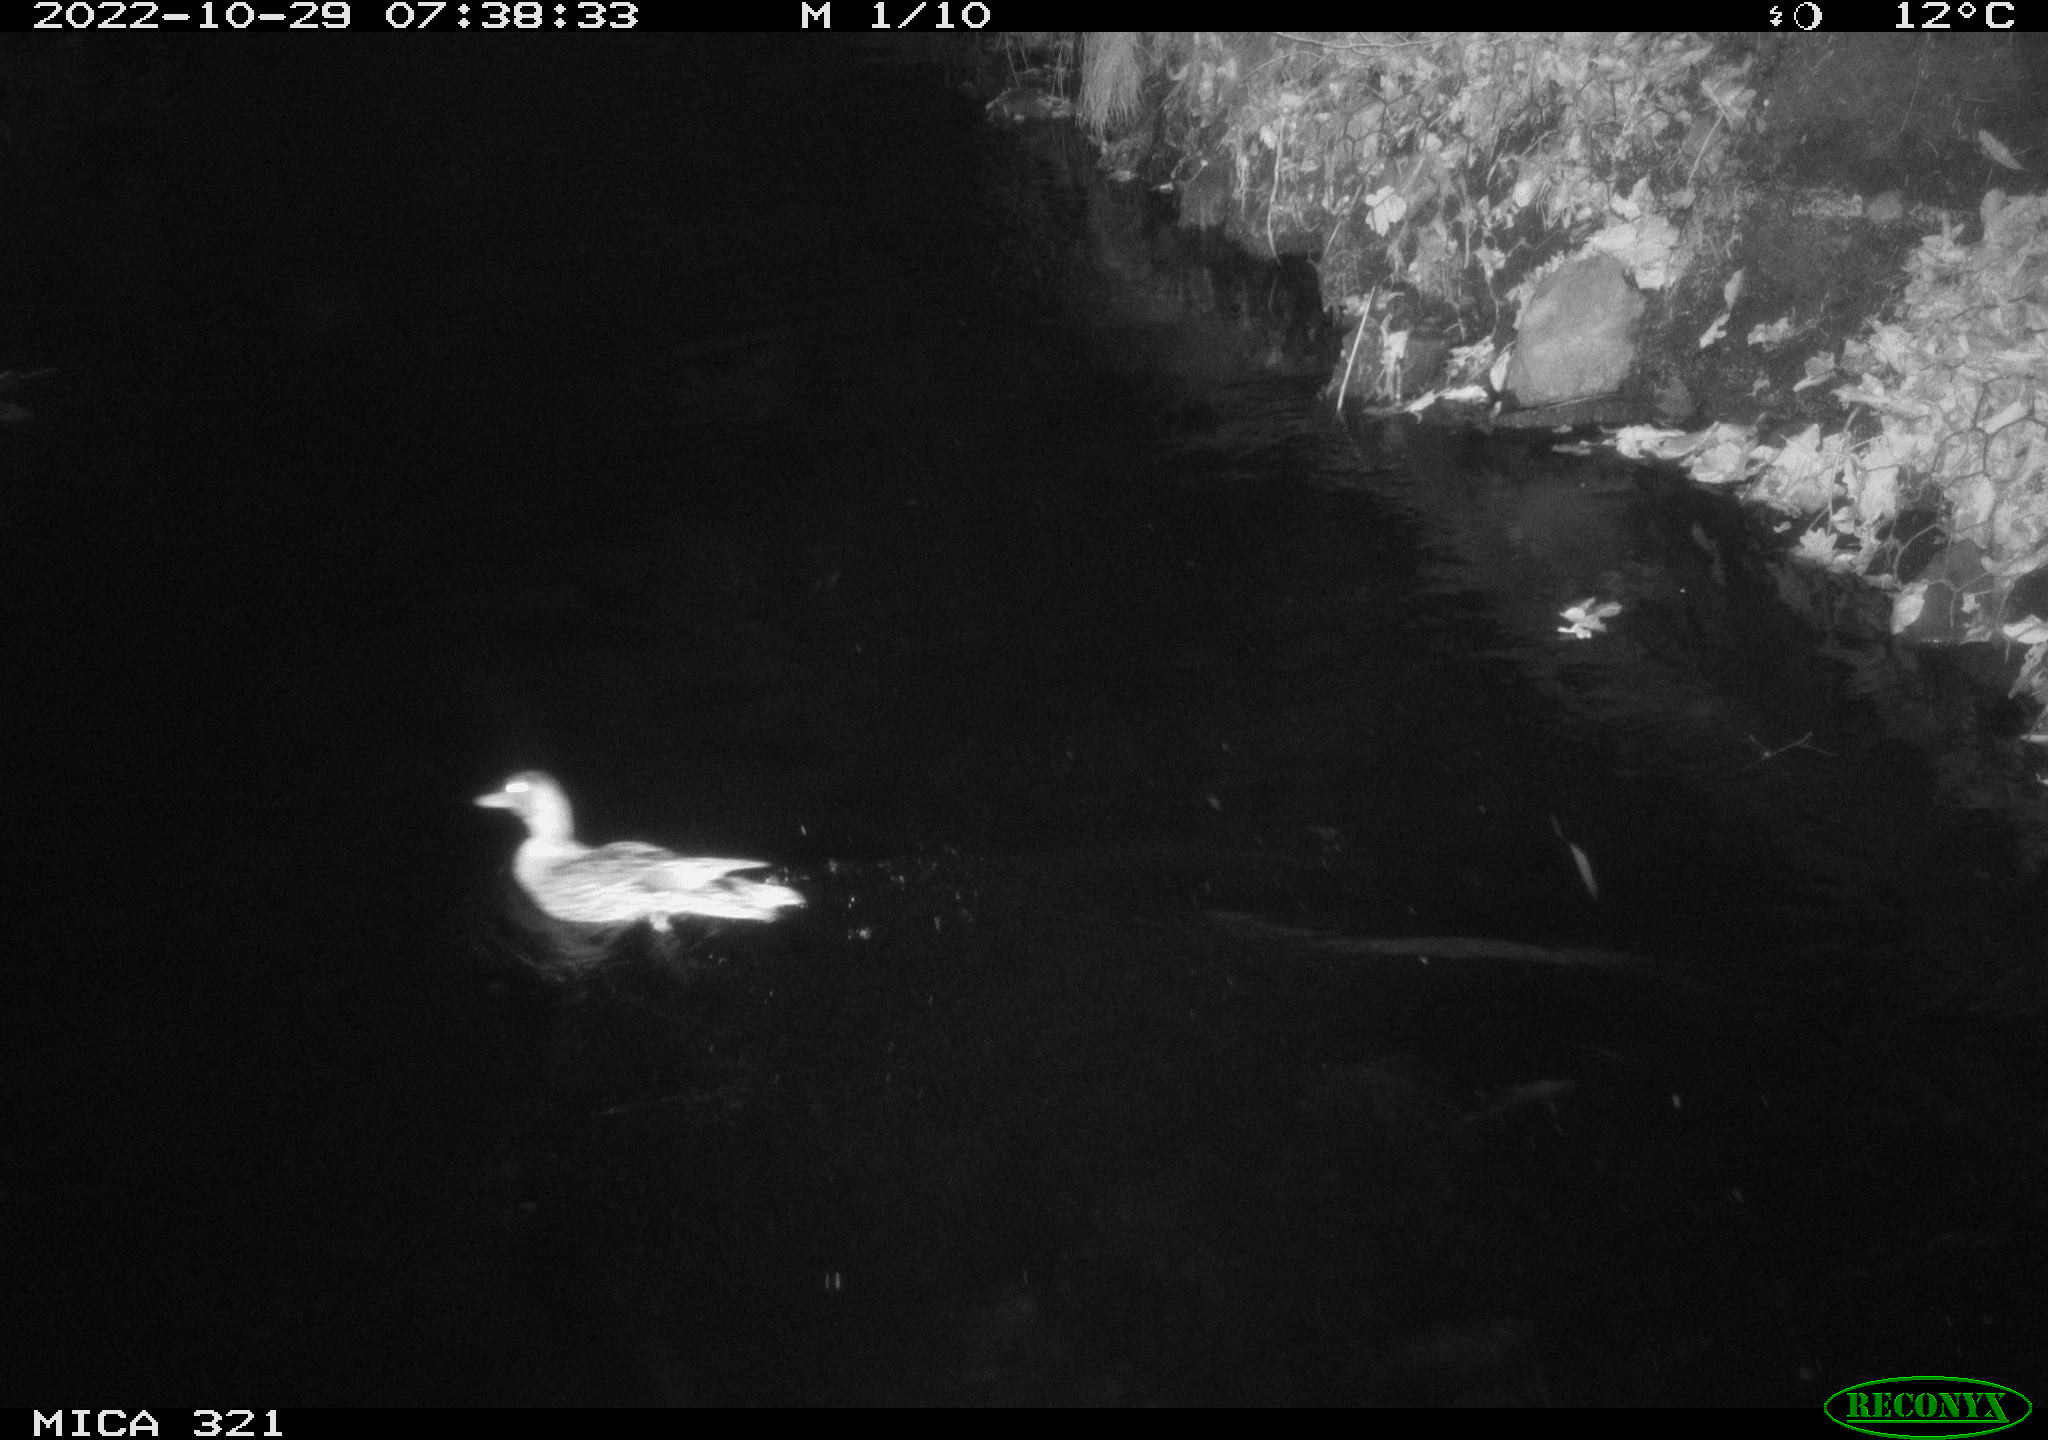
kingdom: Animalia
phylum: Chordata
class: Aves
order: Anseriformes
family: Anatidae
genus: Anas
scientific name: Anas
